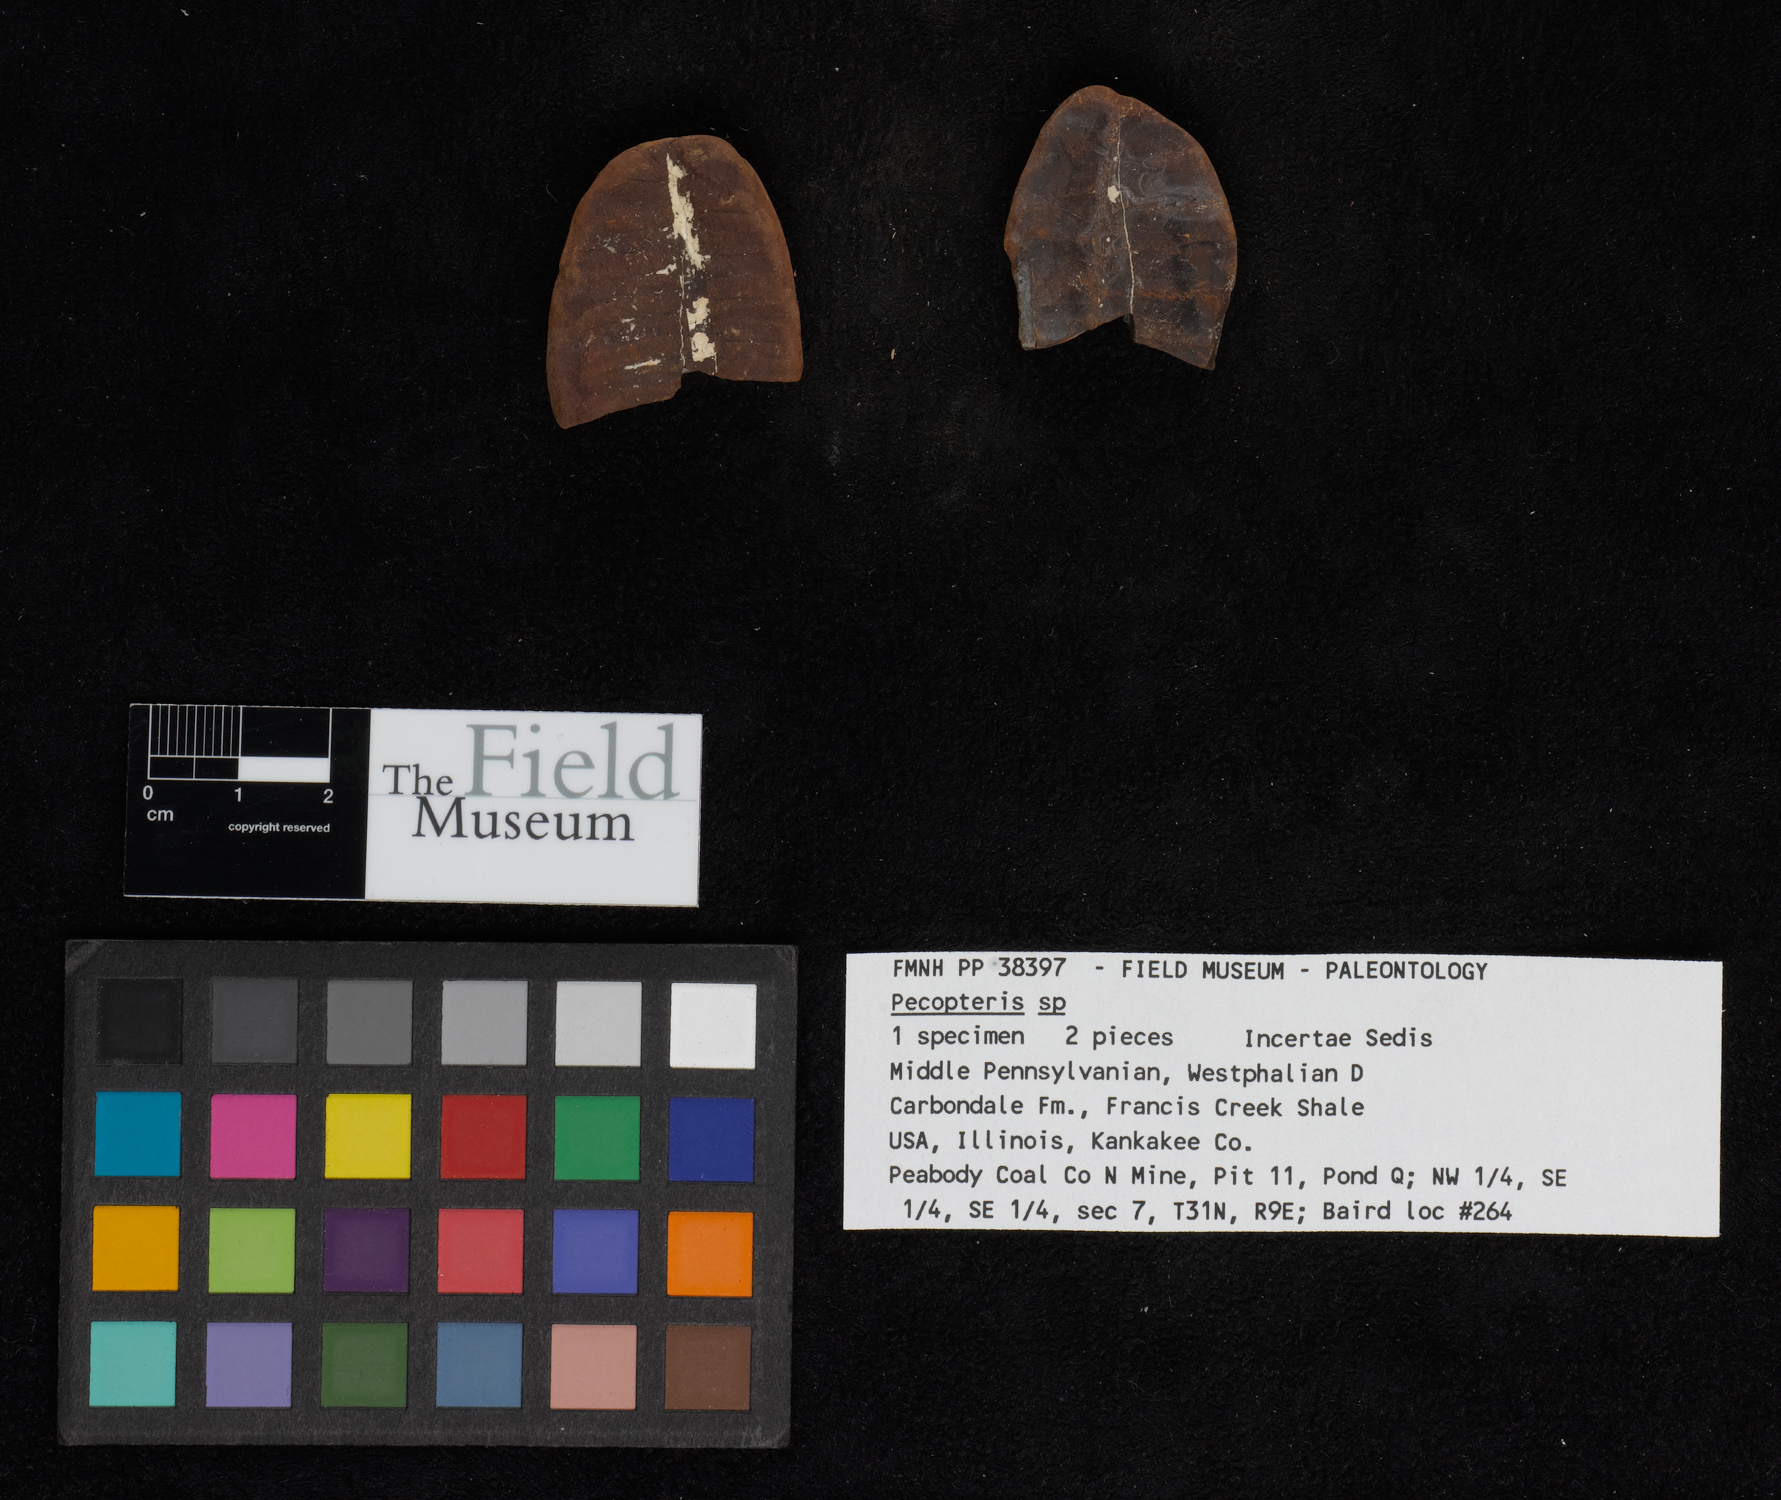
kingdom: Plantae
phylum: Tracheophyta
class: Polypodiopsida
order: Marattiales
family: Asterothecaceae
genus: Pecopteris
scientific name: Pecopteris
